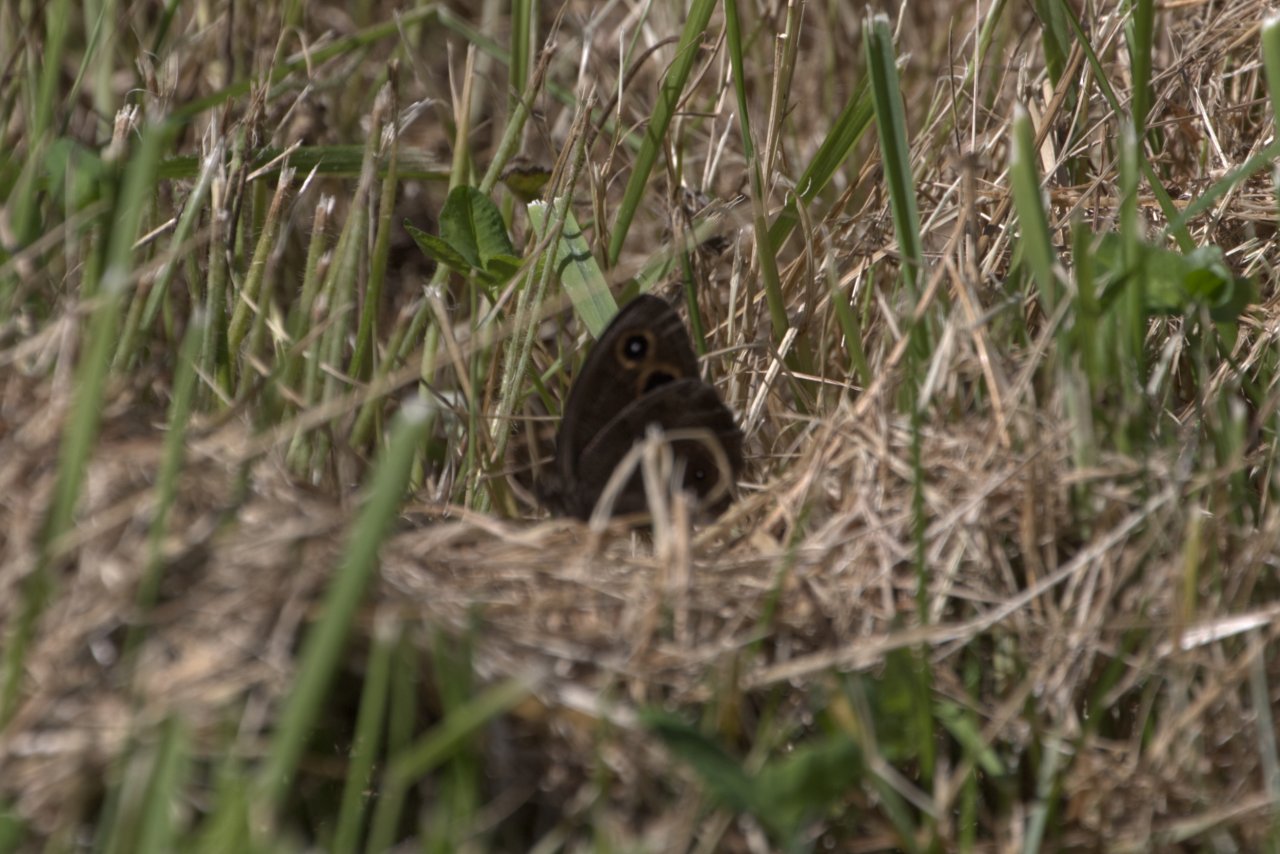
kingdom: Animalia
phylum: Arthropoda
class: Insecta
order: Lepidoptera
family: Nymphalidae
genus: Cercyonis
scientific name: Cercyonis pegala
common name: Common Wood-Nymph
